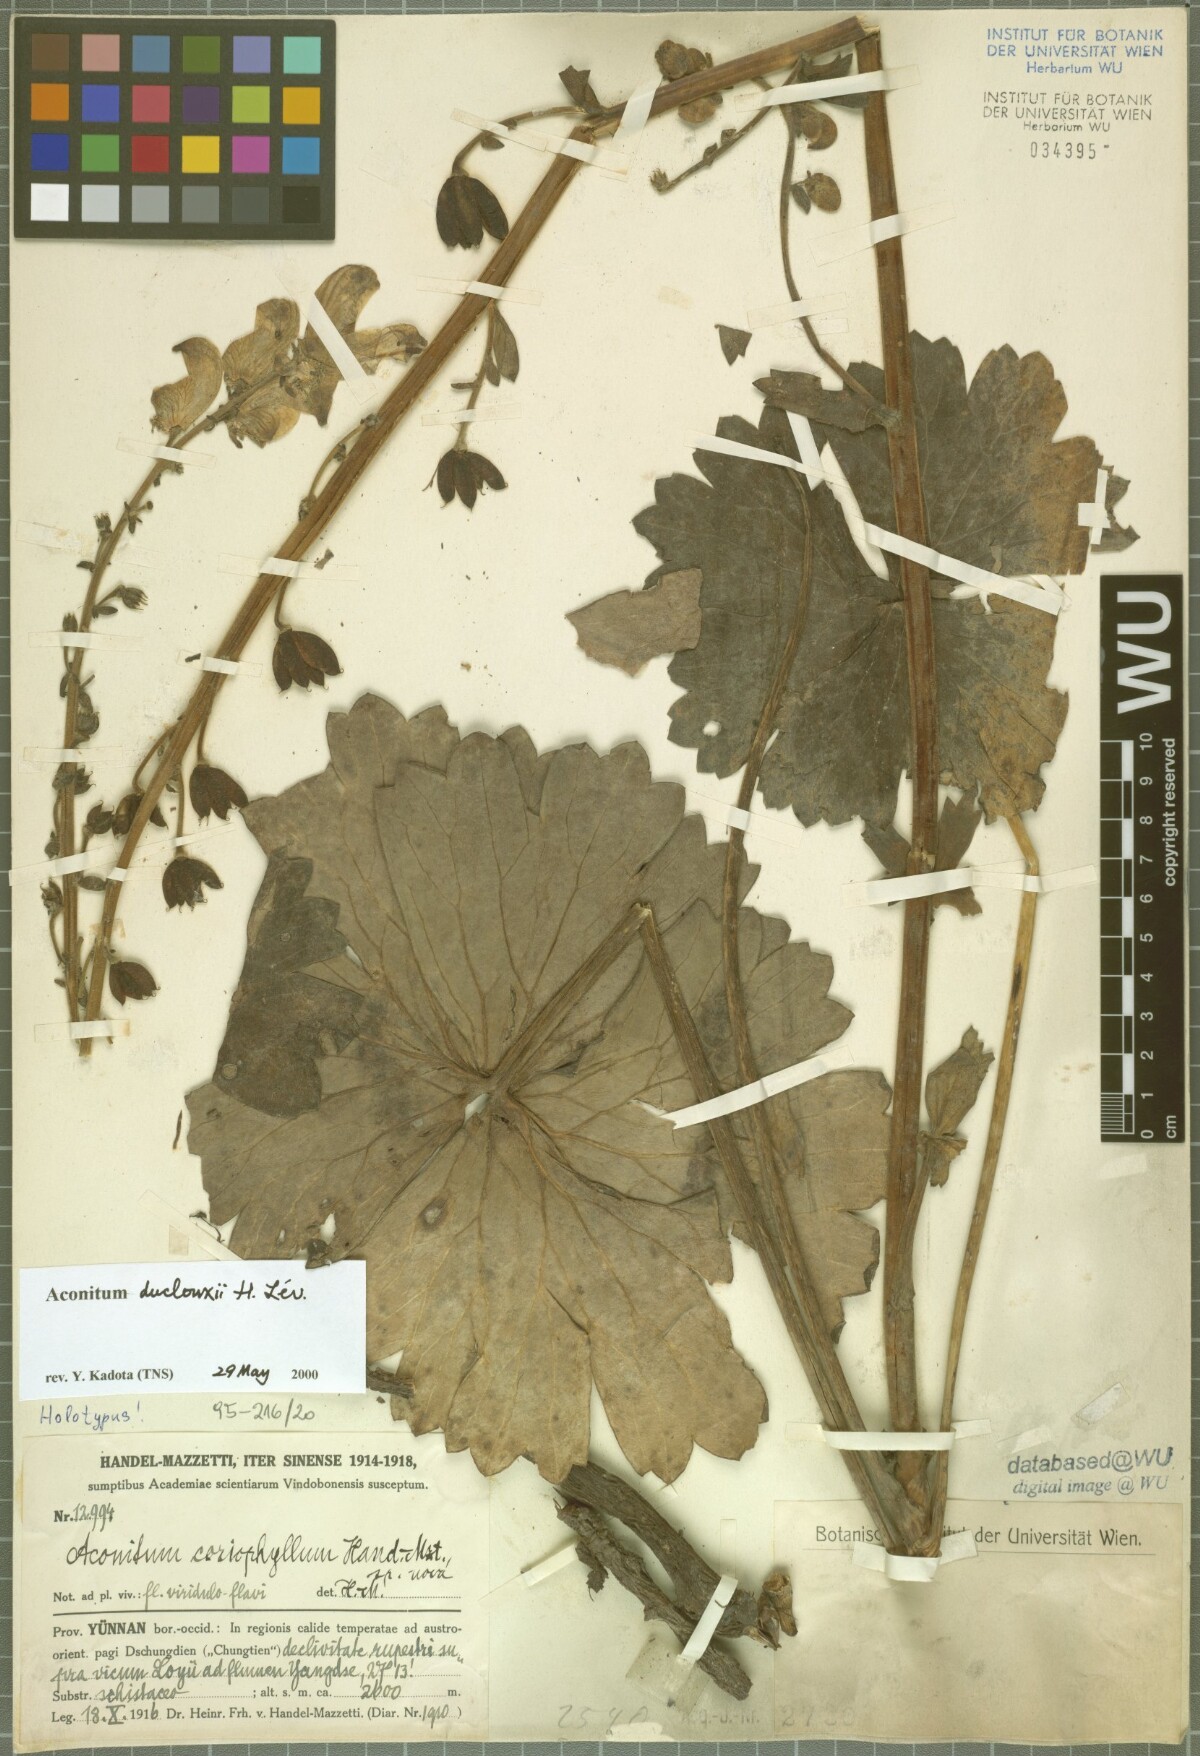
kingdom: Plantae
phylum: Tracheophyta
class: Magnoliopsida
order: Ranunculales
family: Ranunculaceae
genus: Aconitum
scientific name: Aconitum duclouxii
